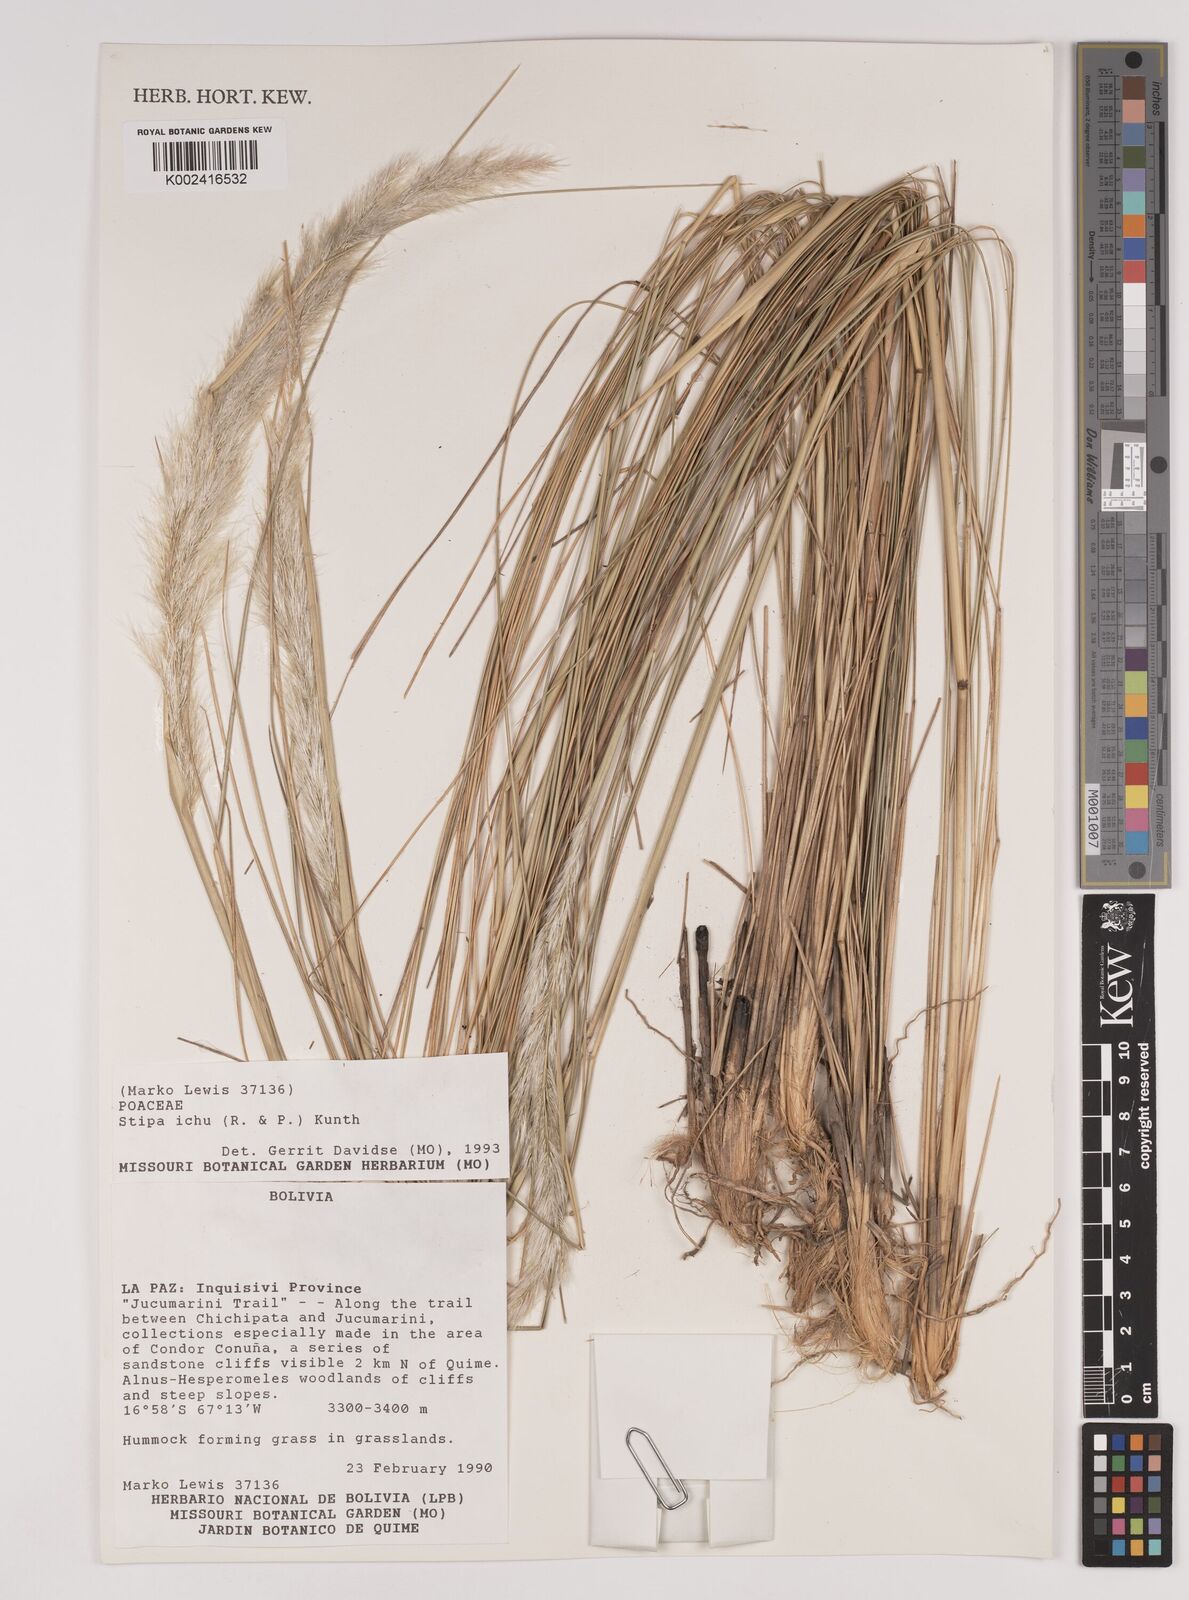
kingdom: Plantae
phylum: Tracheophyta
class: Liliopsida
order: Poales
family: Poaceae
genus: Stipa
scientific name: Stipa
